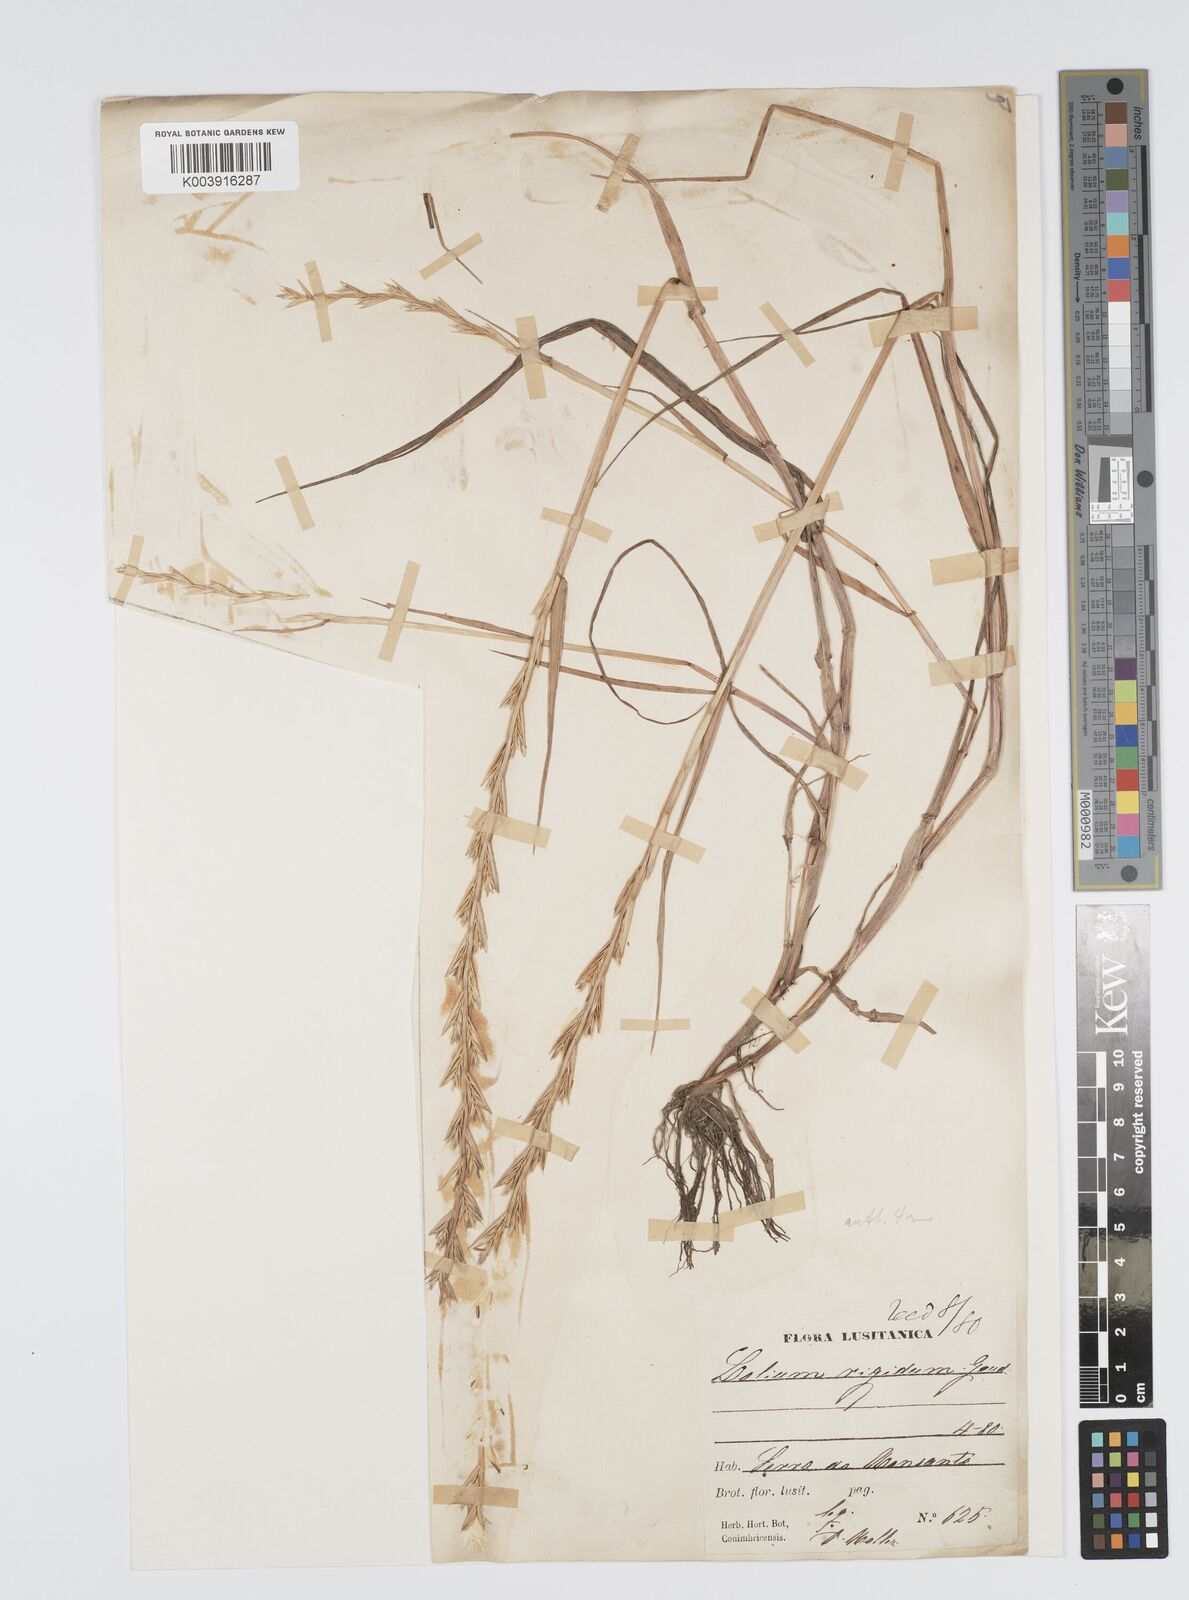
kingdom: Plantae
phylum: Tracheophyta
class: Liliopsida
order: Poales
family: Poaceae
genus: Lolium
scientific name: Lolium rigidum
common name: Wimmera ryegrass
